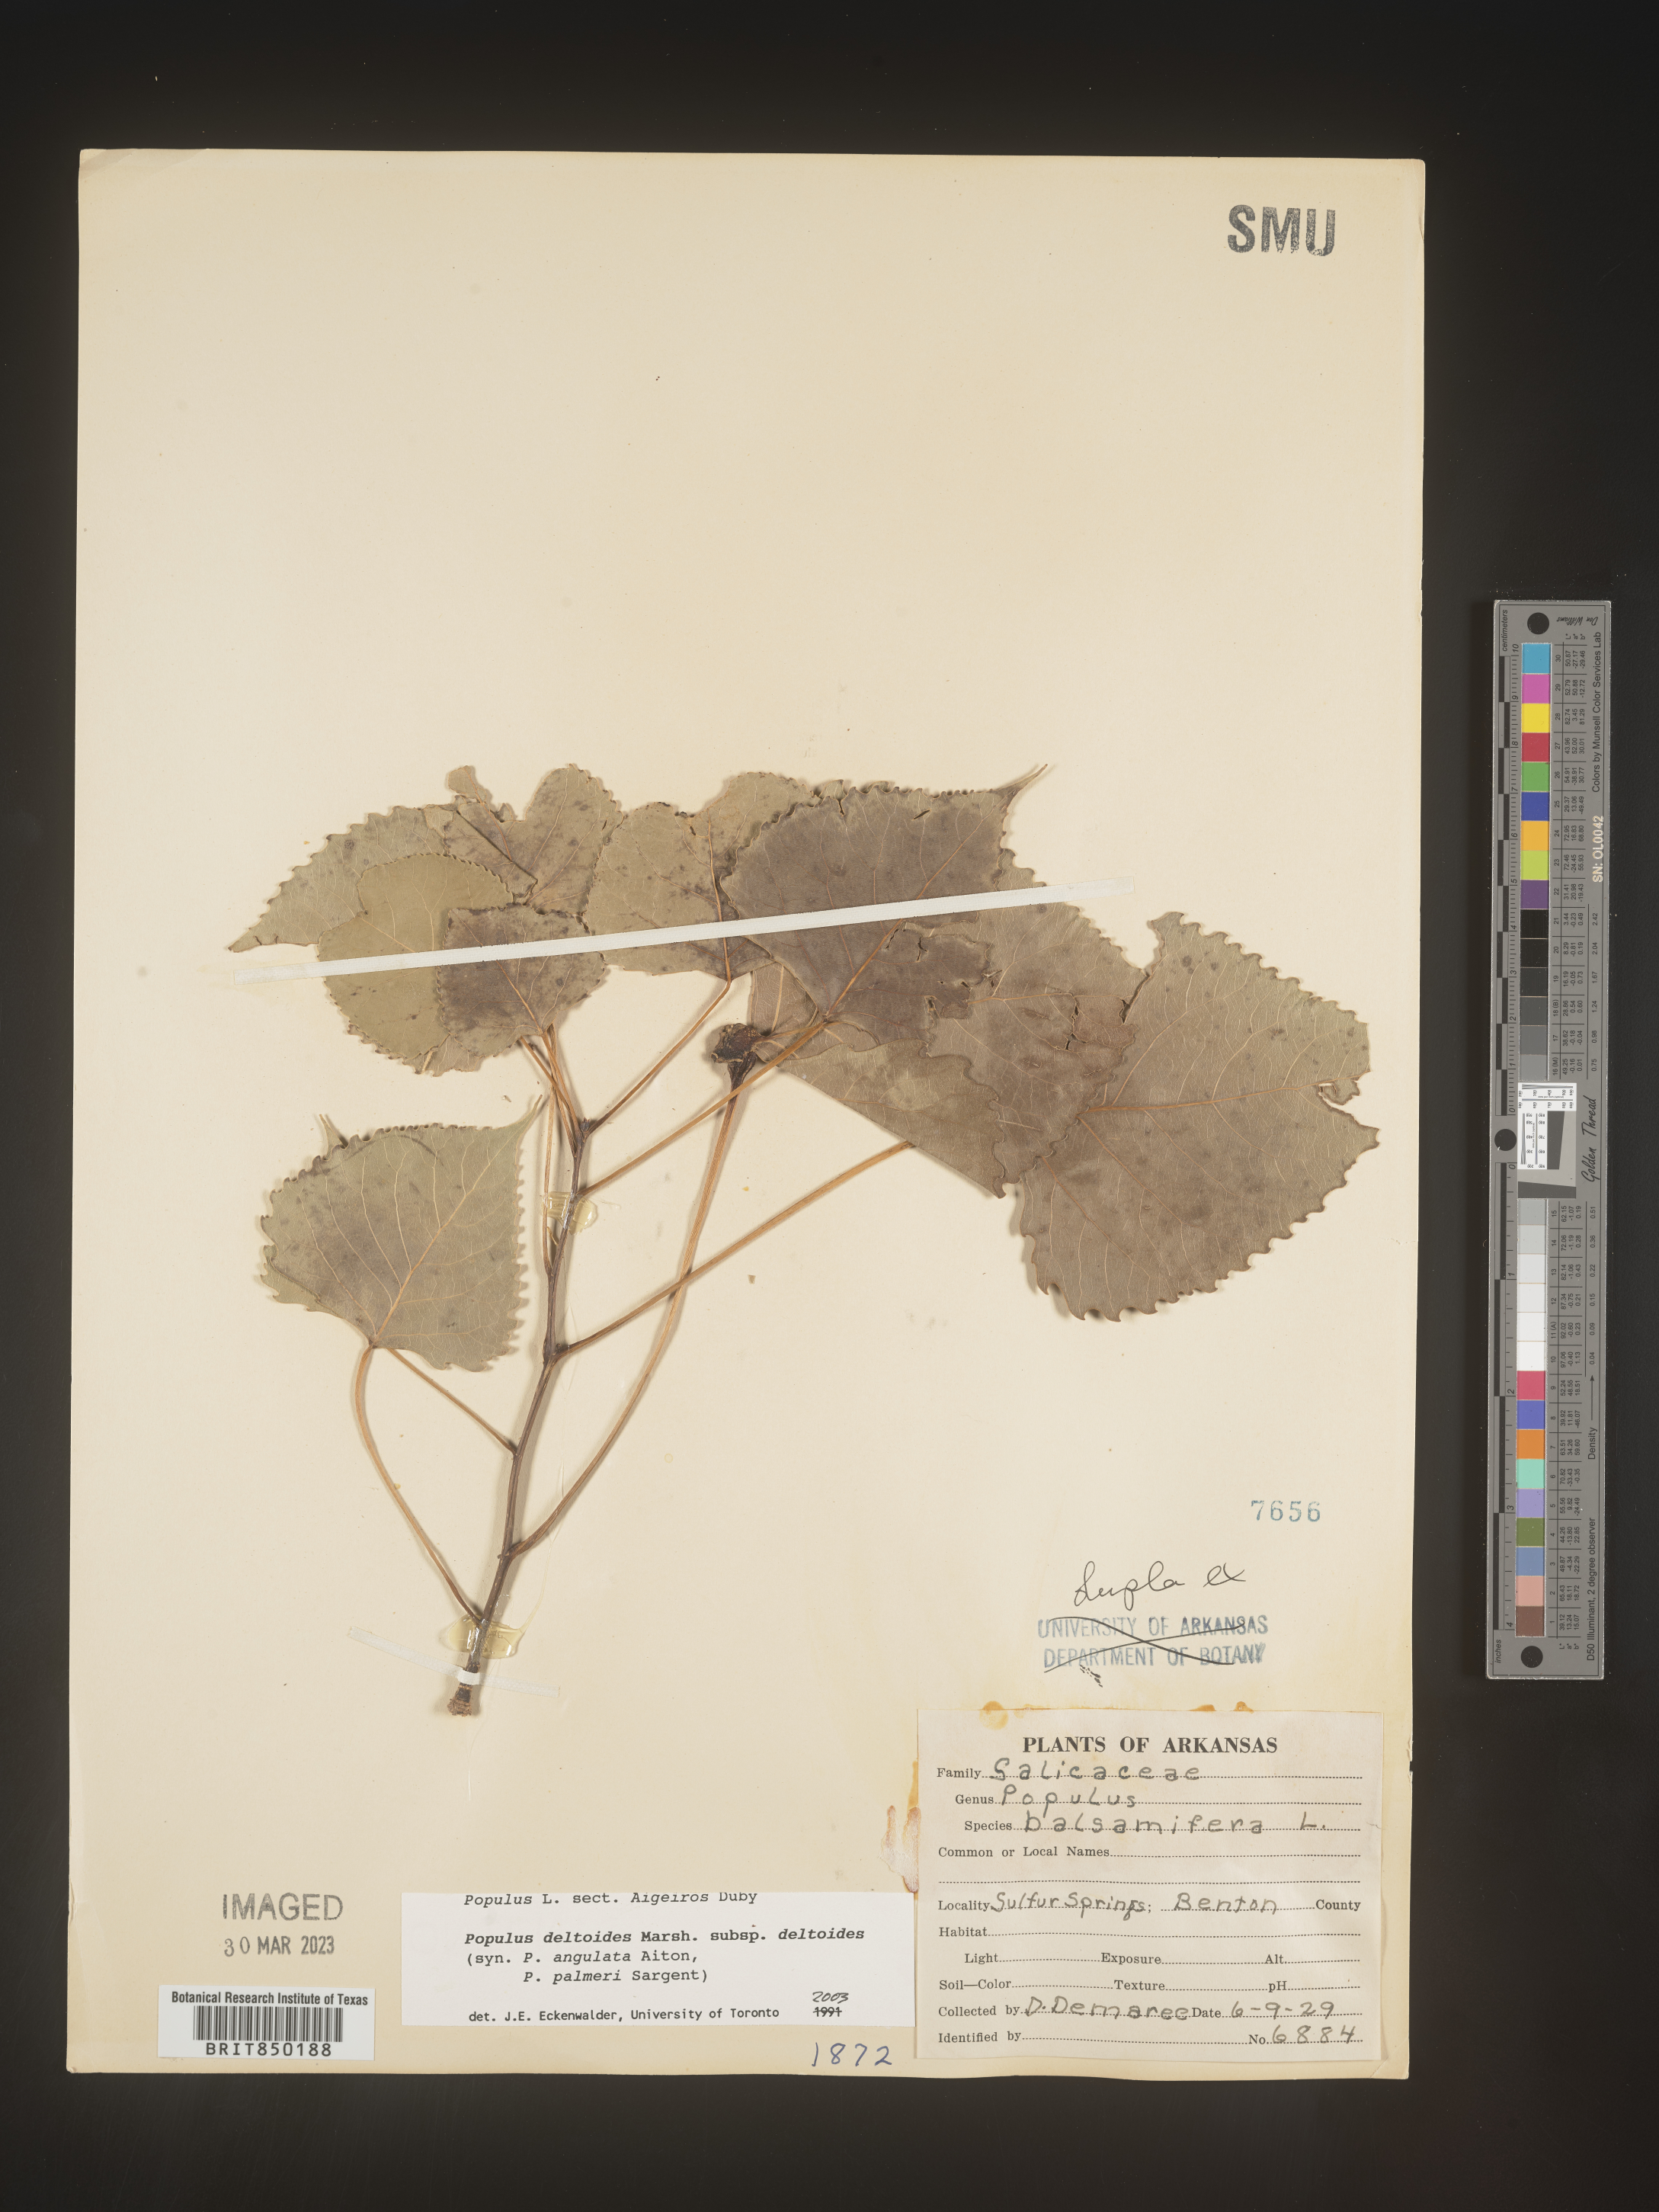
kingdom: Plantae
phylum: Tracheophyta
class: Magnoliopsida
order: Malpighiales
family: Salicaceae
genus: Populus
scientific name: Populus deltoides
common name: Eastern cottonwood
